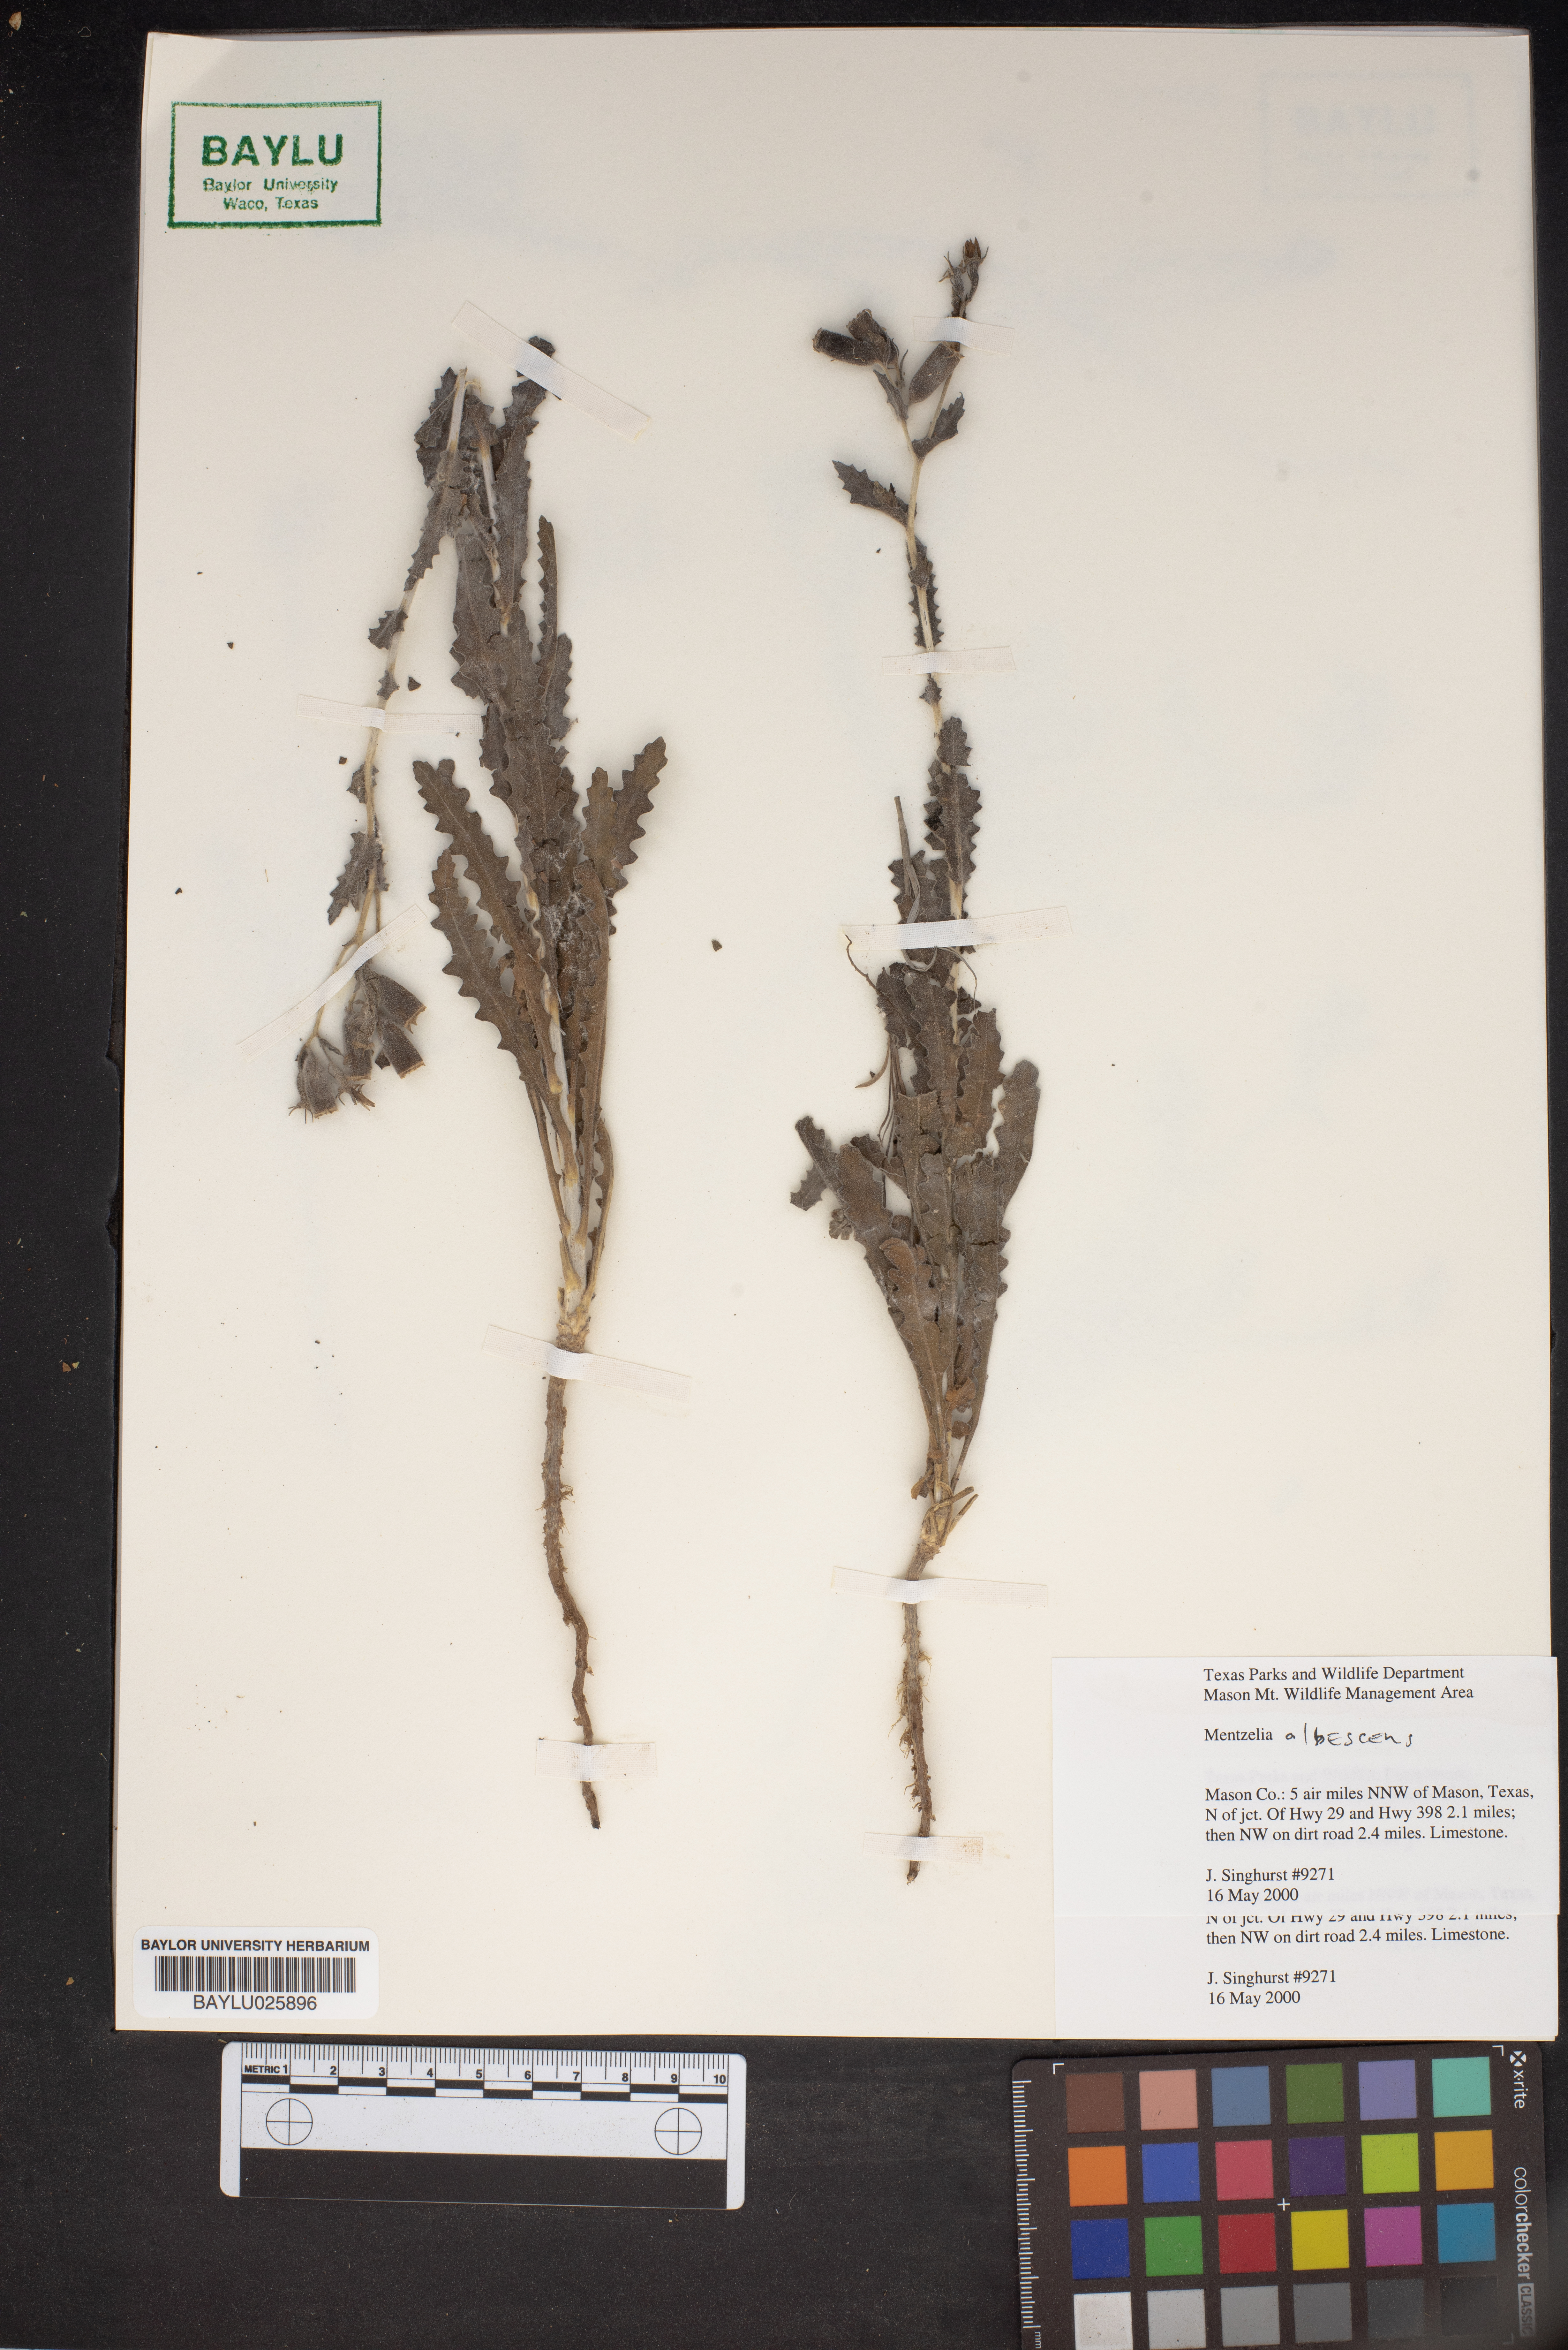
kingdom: Plantae
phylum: Tracheophyta
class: Magnoliopsida
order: Cornales
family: Loasaceae
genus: Mentzelia
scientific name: Mentzelia albescens
